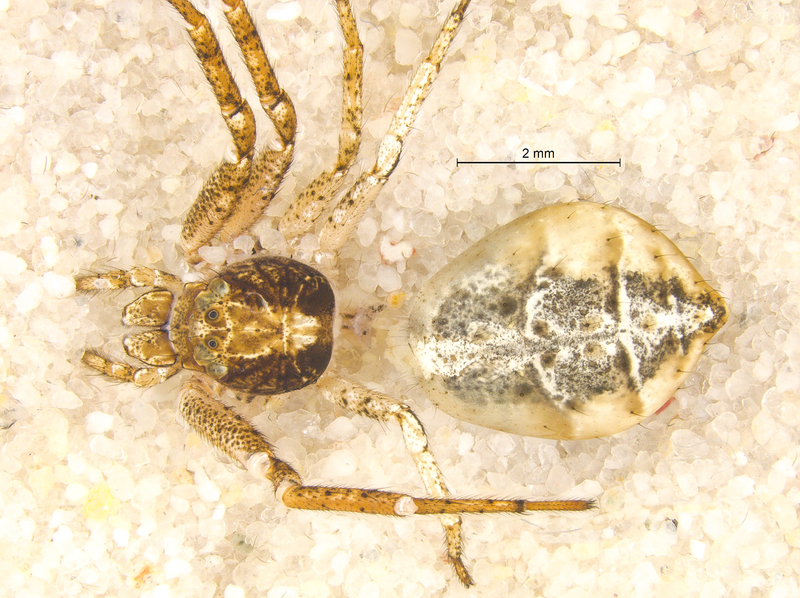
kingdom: Animalia
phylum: Arthropoda
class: Arachnida
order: Araneae
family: Thomisidae
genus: Tmarus
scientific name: Tmarus piger
